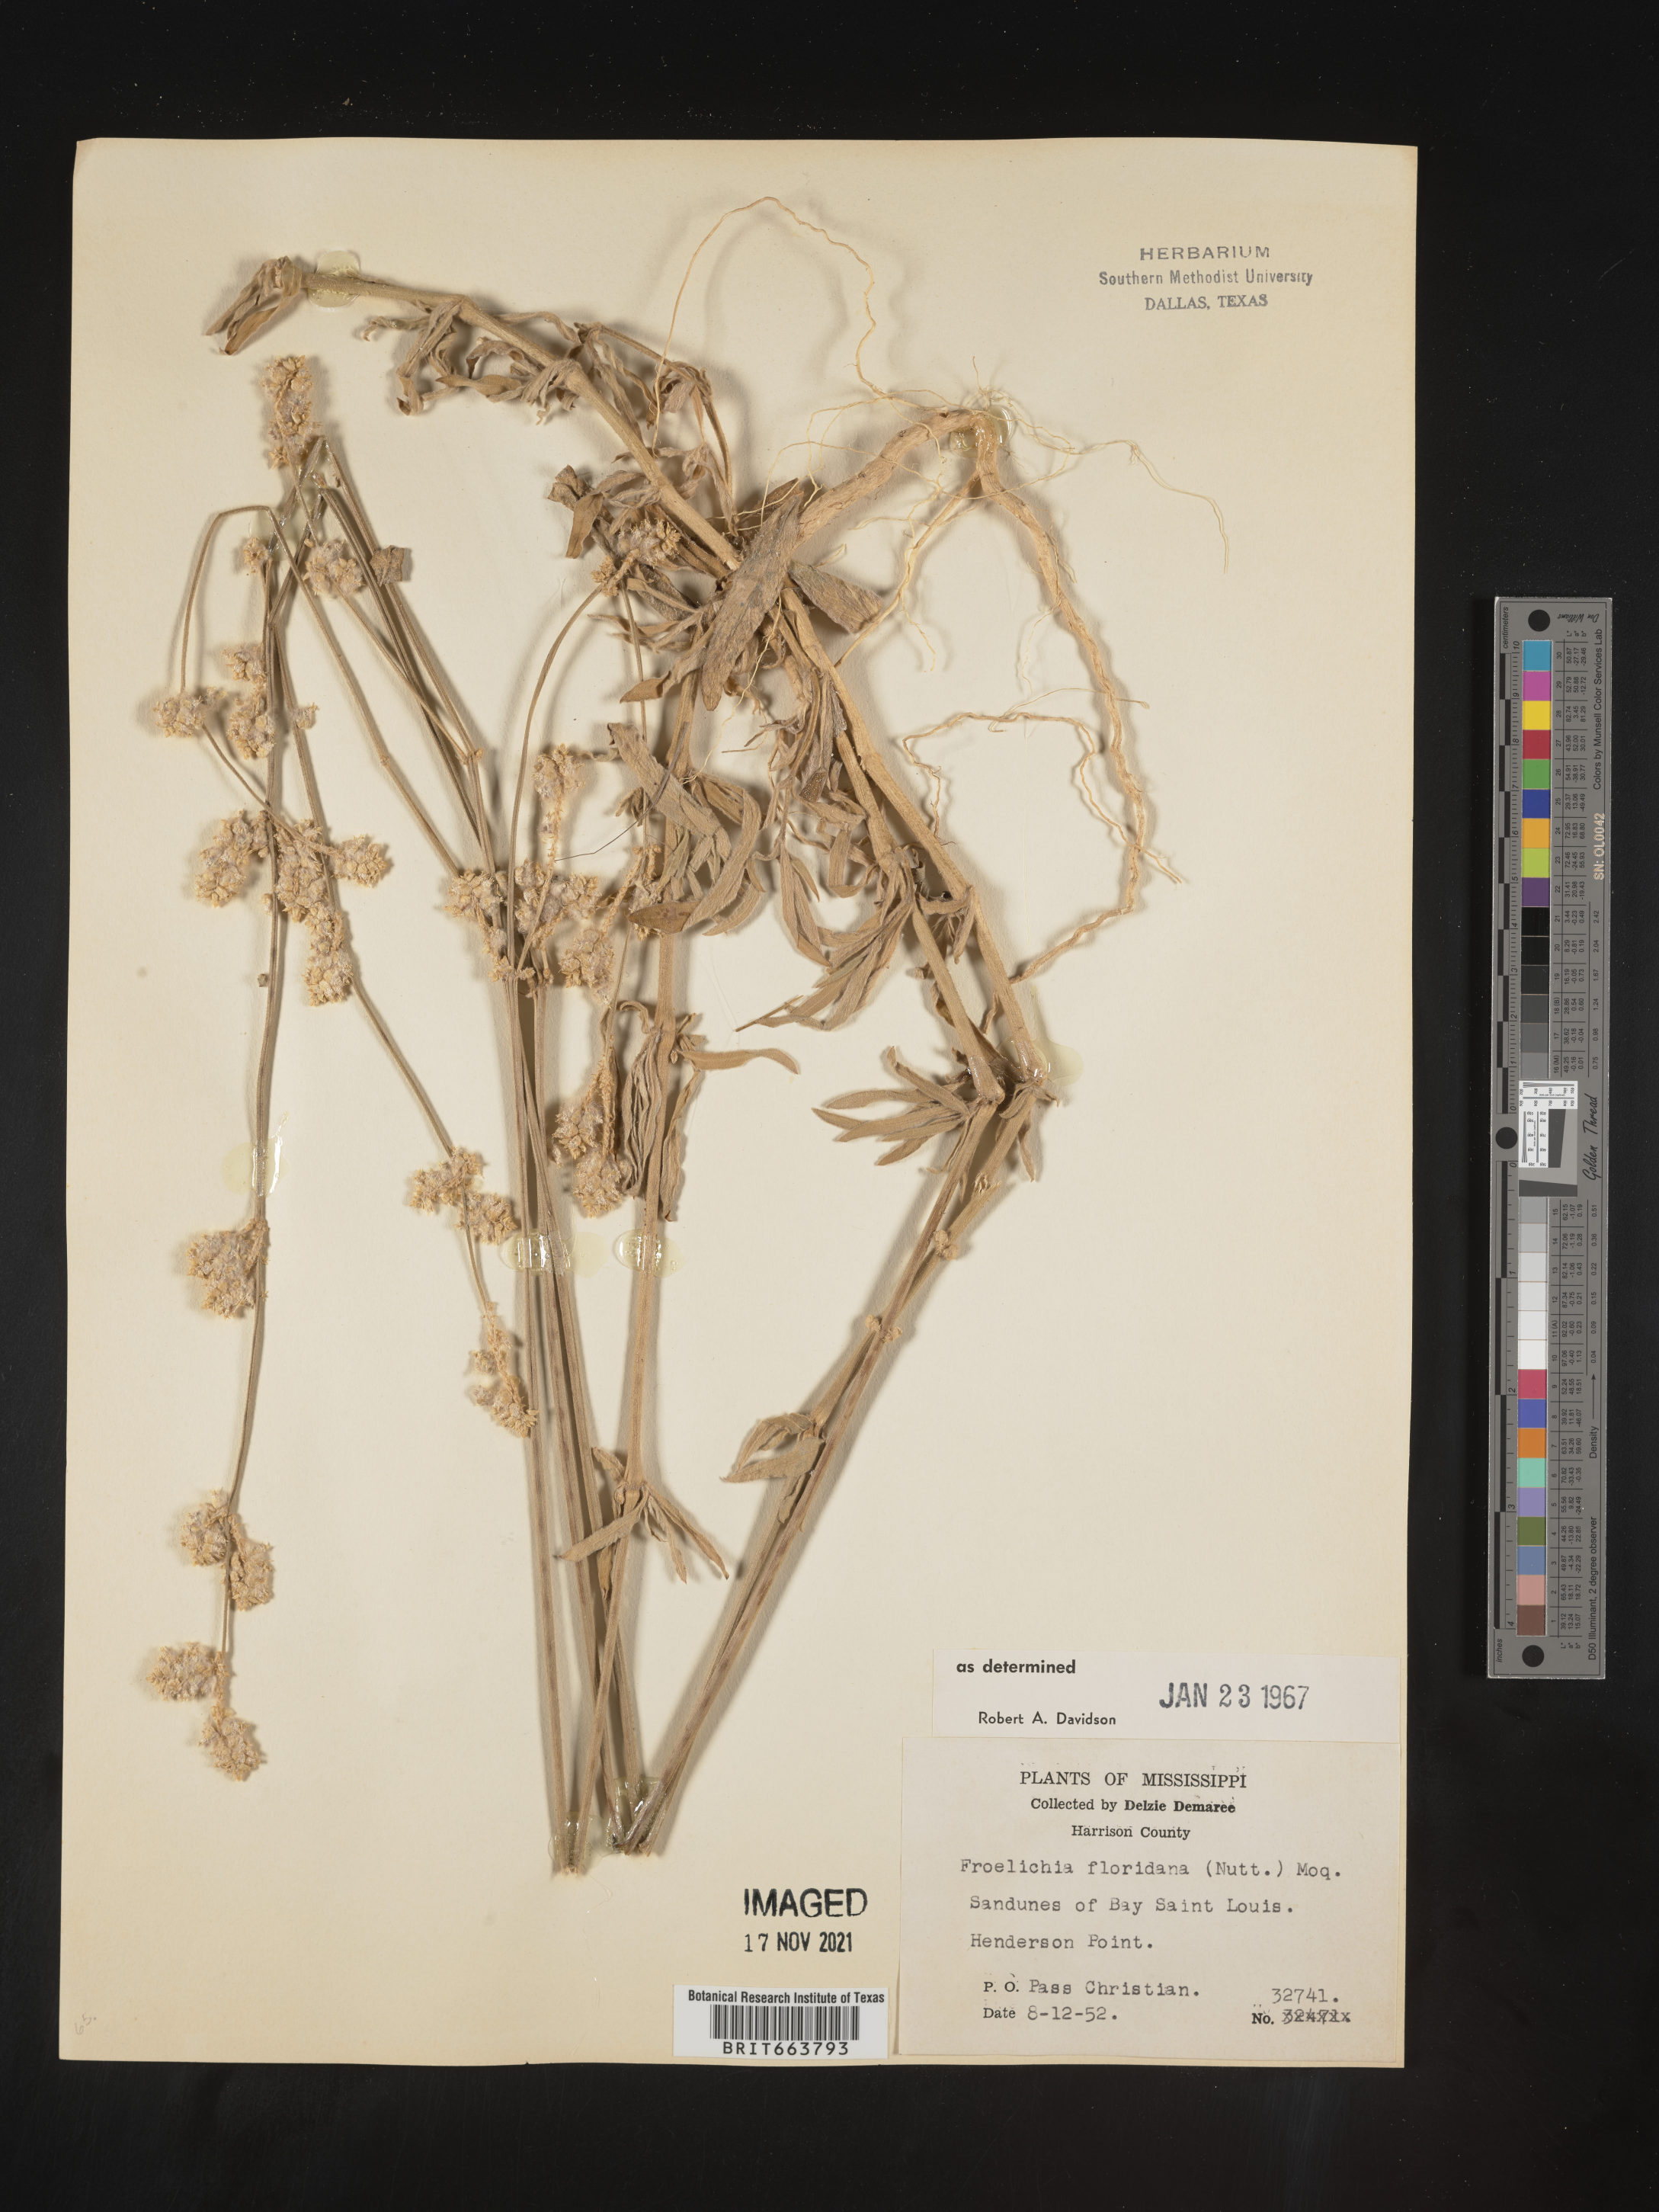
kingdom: Plantae
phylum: Tracheophyta
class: Magnoliopsida
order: Caryophyllales
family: Amaranthaceae
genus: Froelichia
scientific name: Froelichia floridana
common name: Florida snake-cotton
